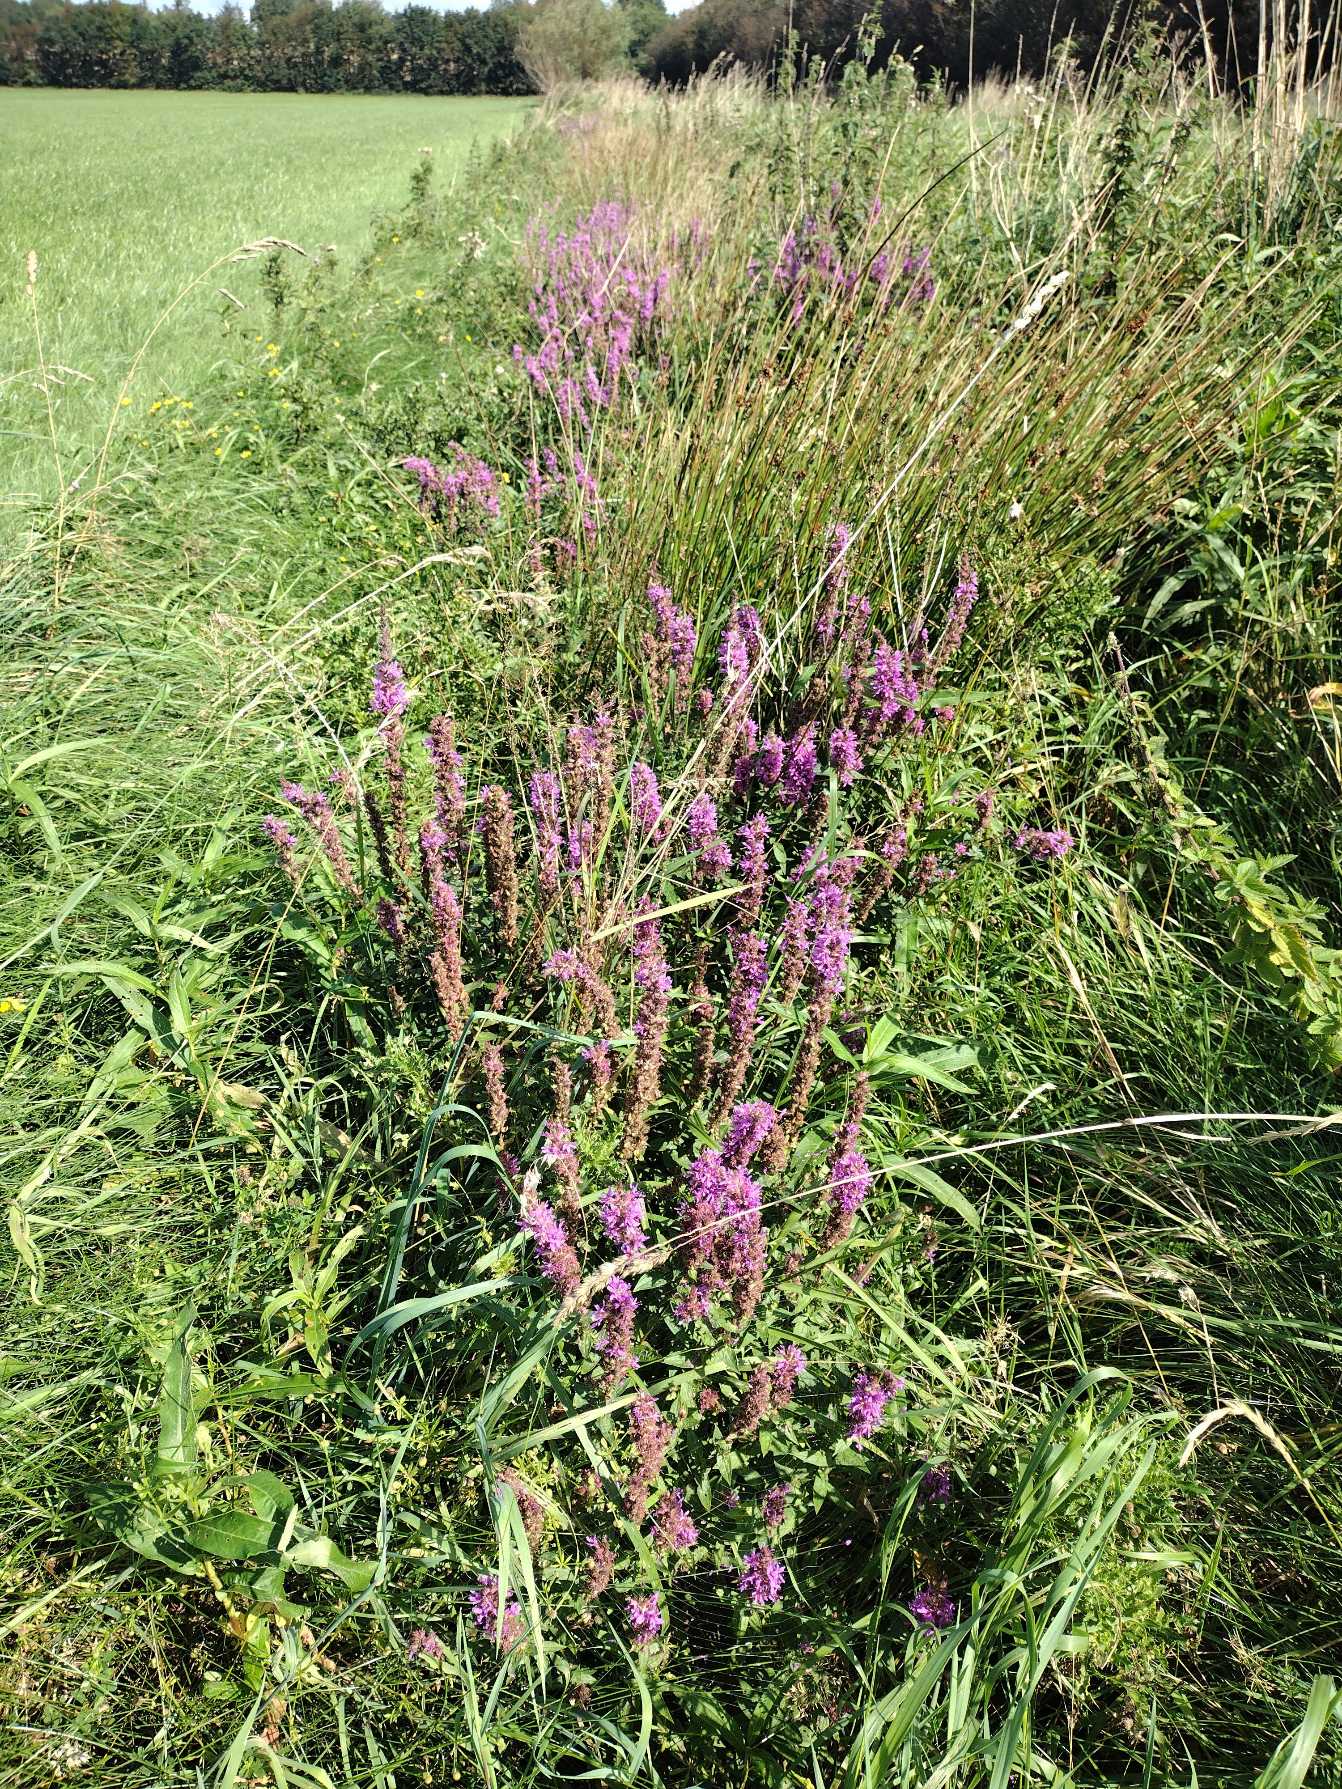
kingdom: Plantae
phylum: Tracheophyta
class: Magnoliopsida
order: Myrtales
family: Lythraceae
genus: Lythrum
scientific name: Lythrum salicaria
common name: Kattehale
